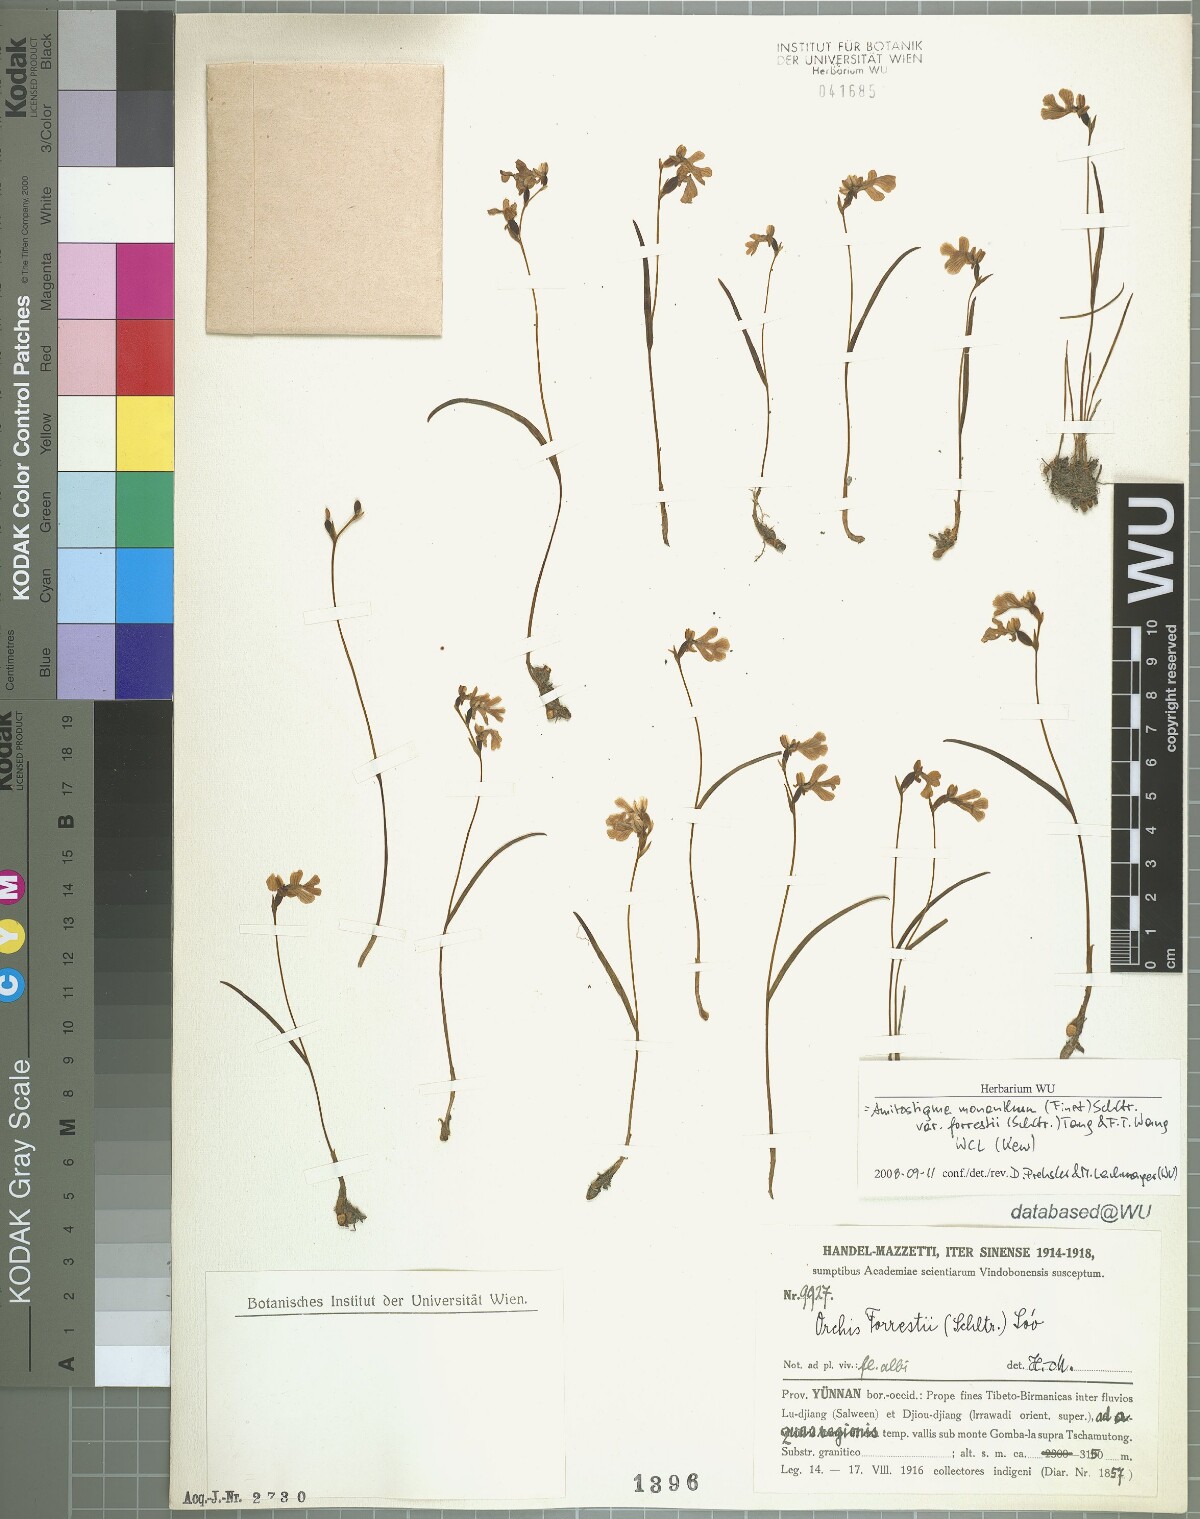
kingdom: Plantae
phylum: Tracheophyta
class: Liliopsida
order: Asparagales
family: Orchidaceae
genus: Hemipilia
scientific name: Hemipilia monantha
